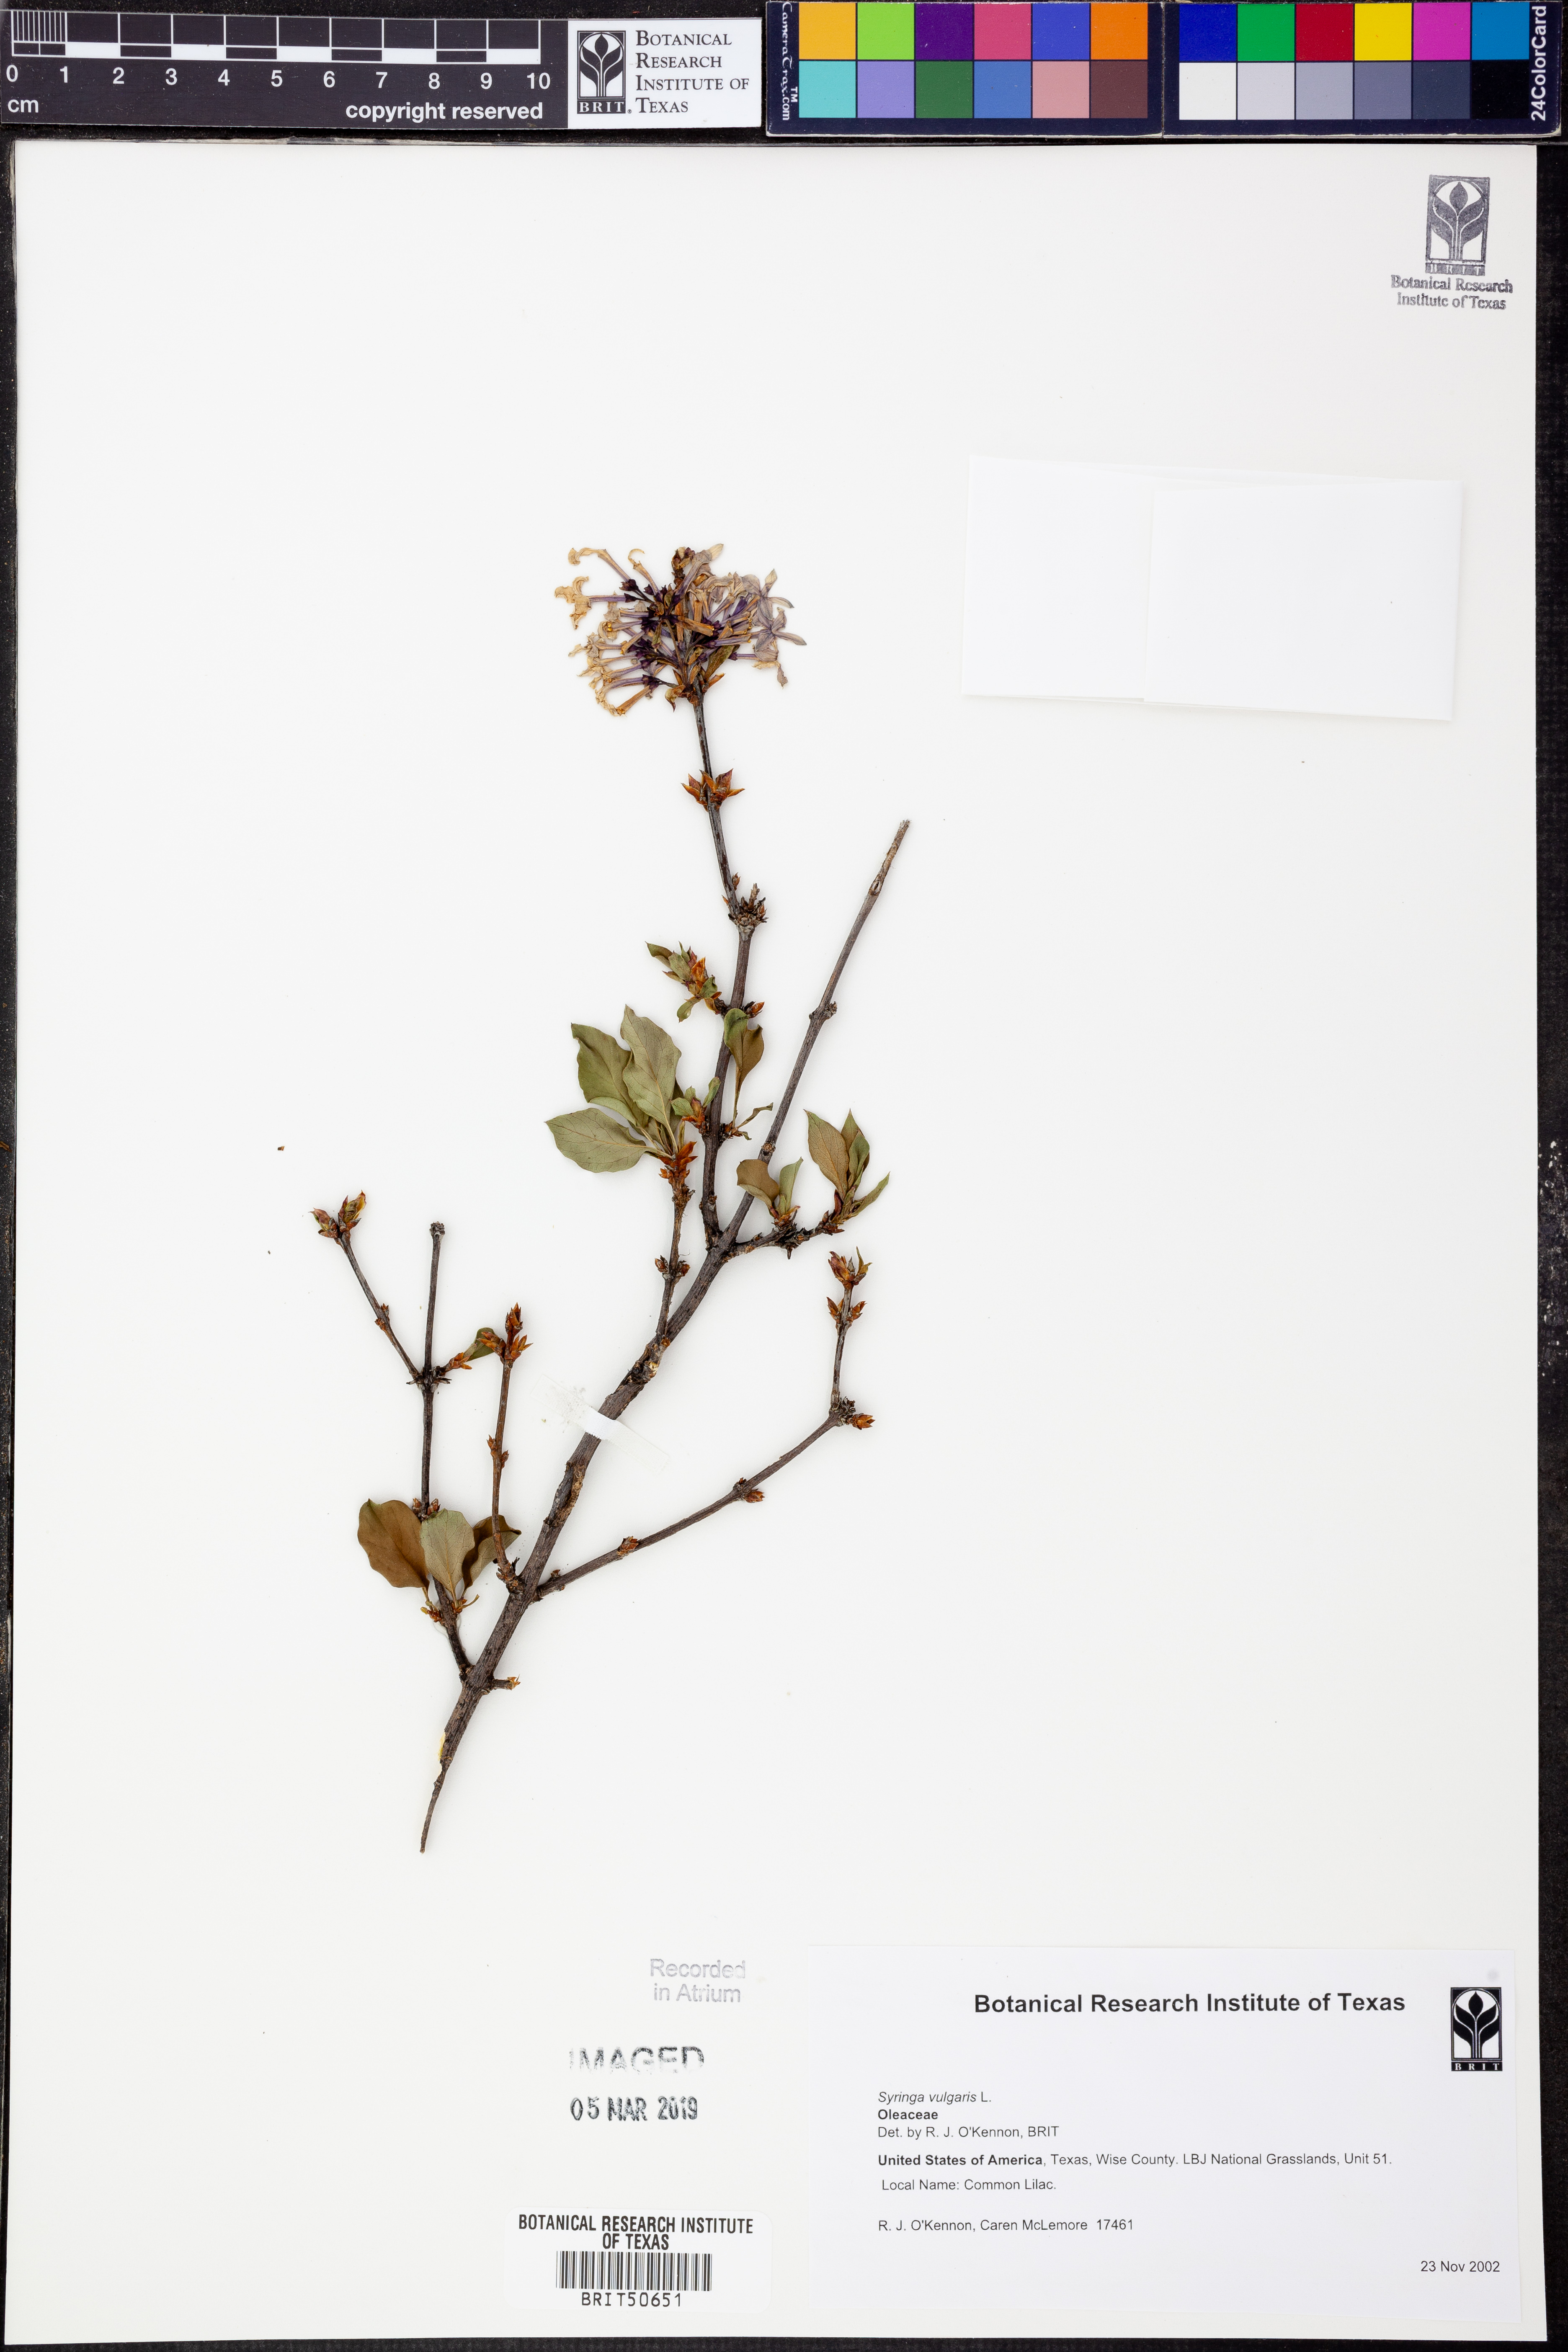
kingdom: Plantae
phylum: Tracheophyta
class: Magnoliopsida
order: Lamiales
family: Oleaceae
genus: Syringa
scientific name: Syringa vulgaris
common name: Common lilac
